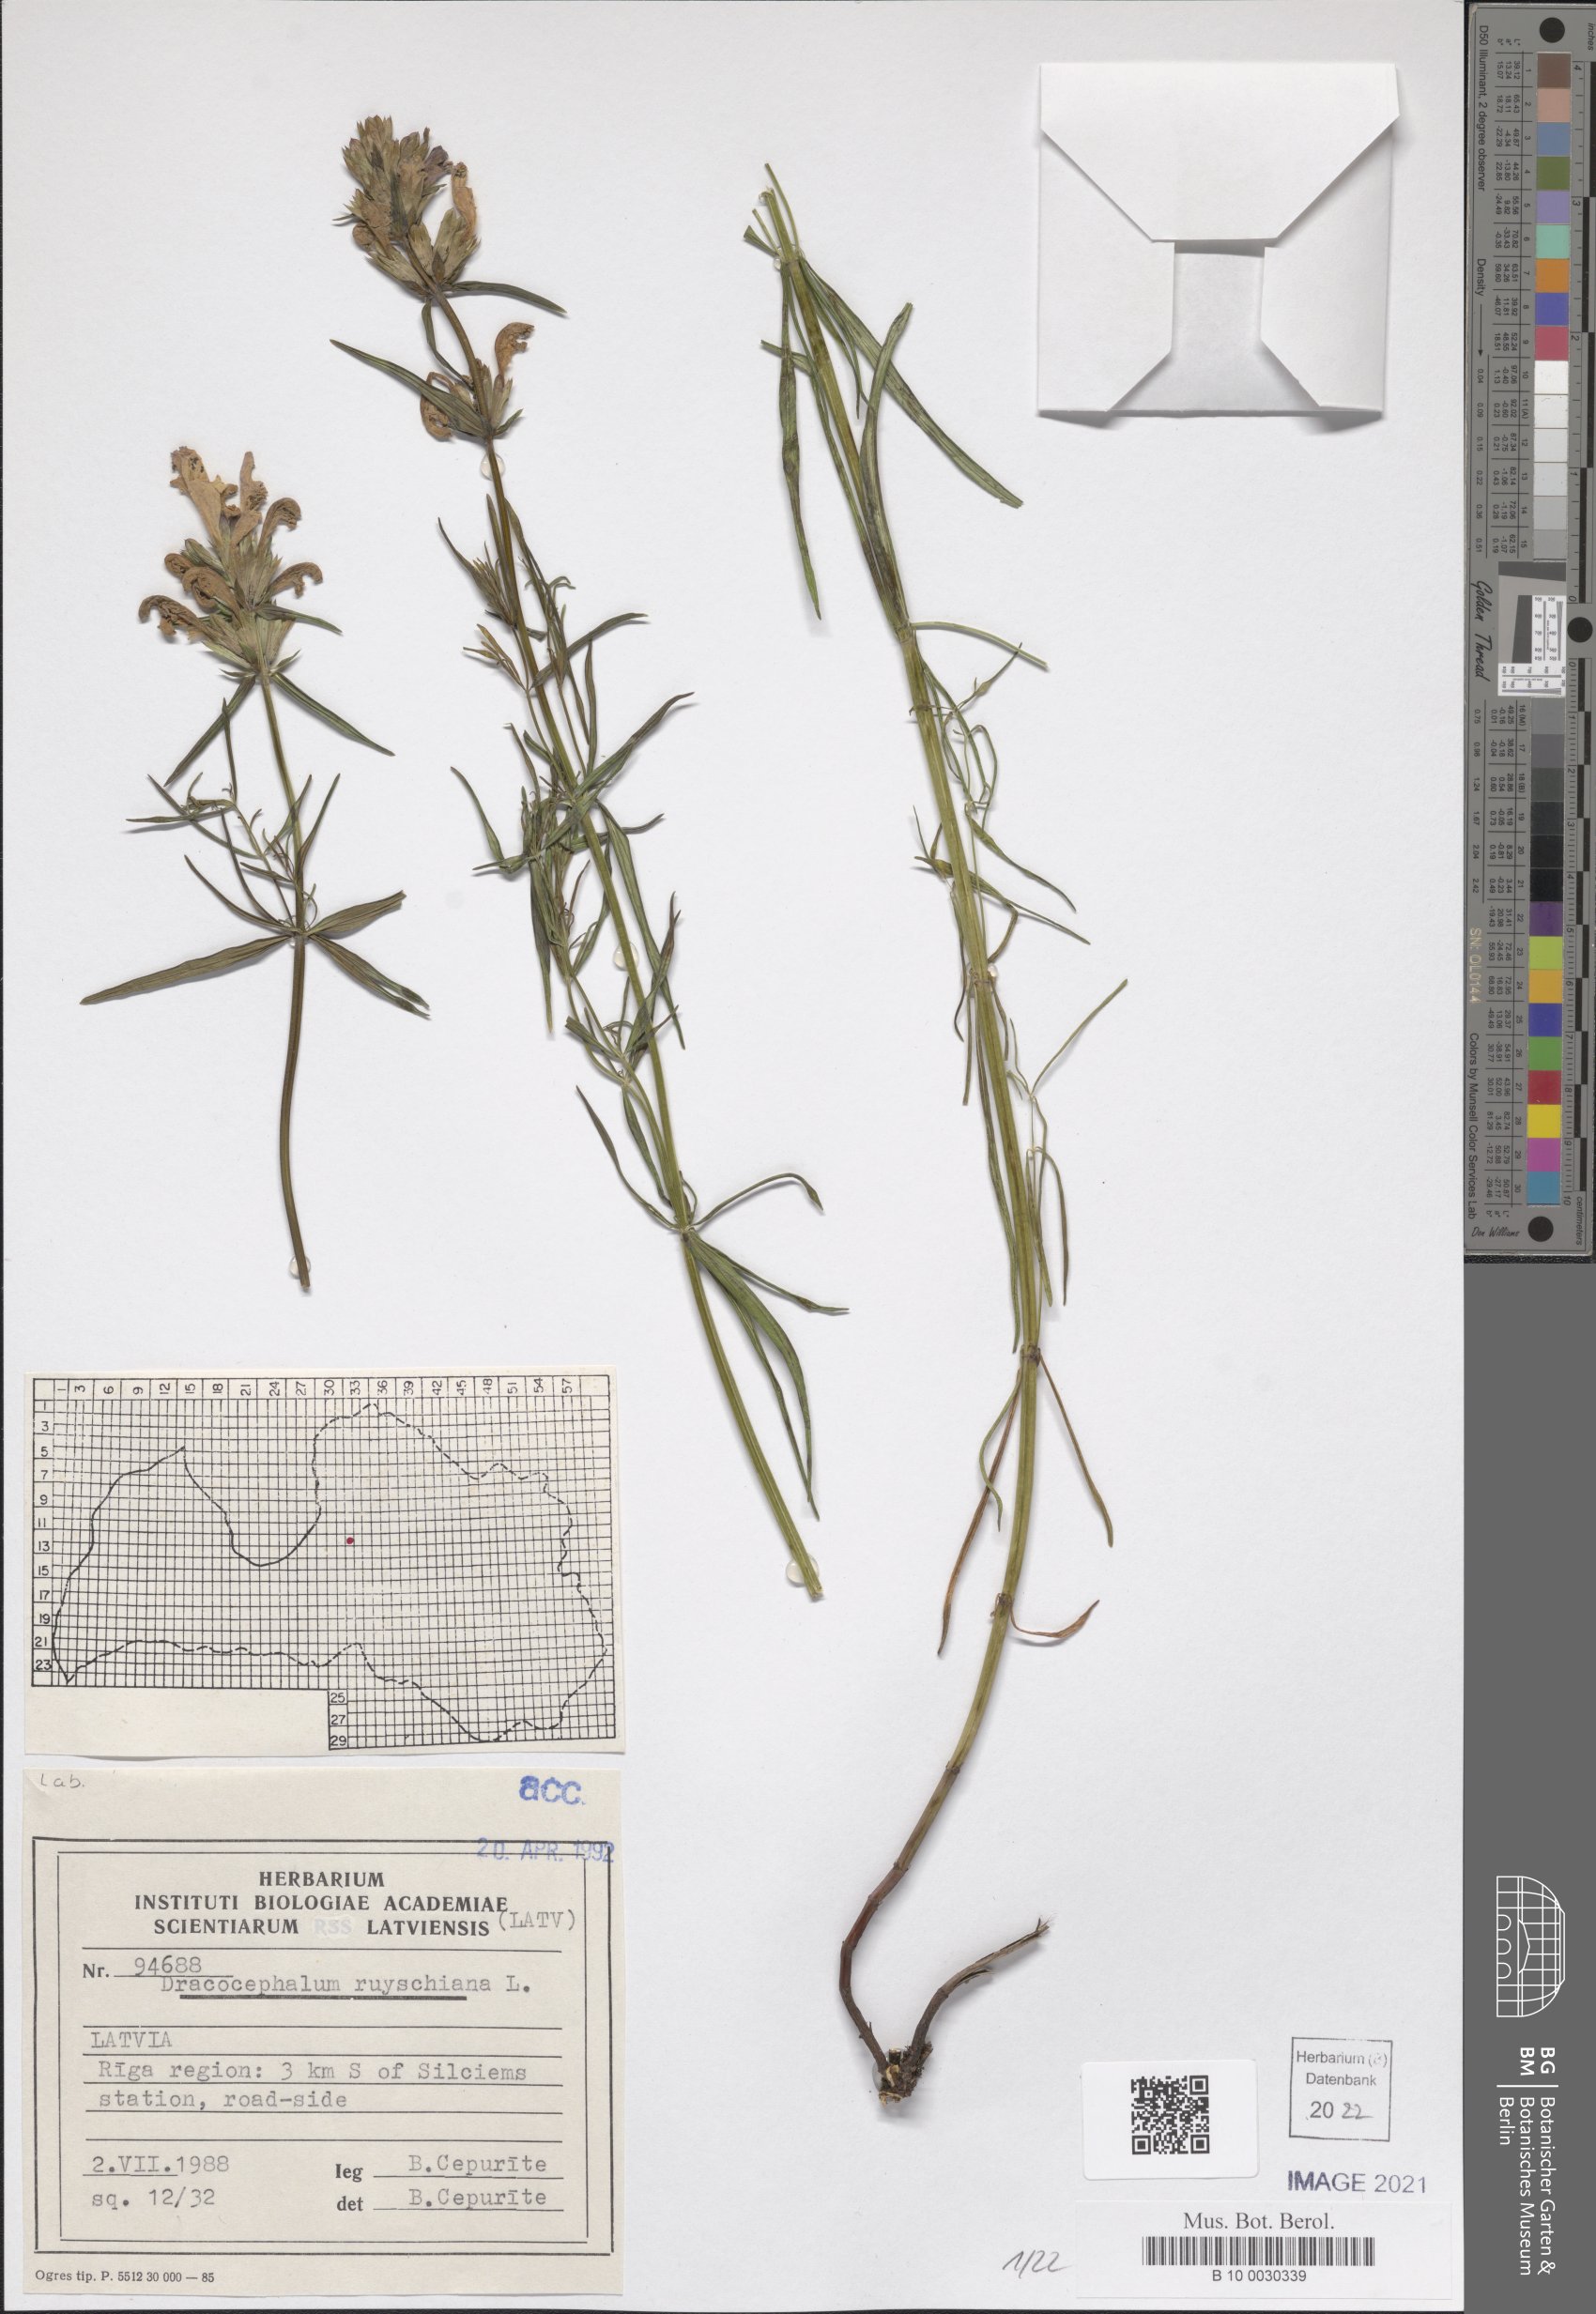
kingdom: Plantae
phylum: Tracheophyta
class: Magnoliopsida
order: Lamiales
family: Lamiaceae
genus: Dracocephalum
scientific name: Dracocephalum ruyschiana
